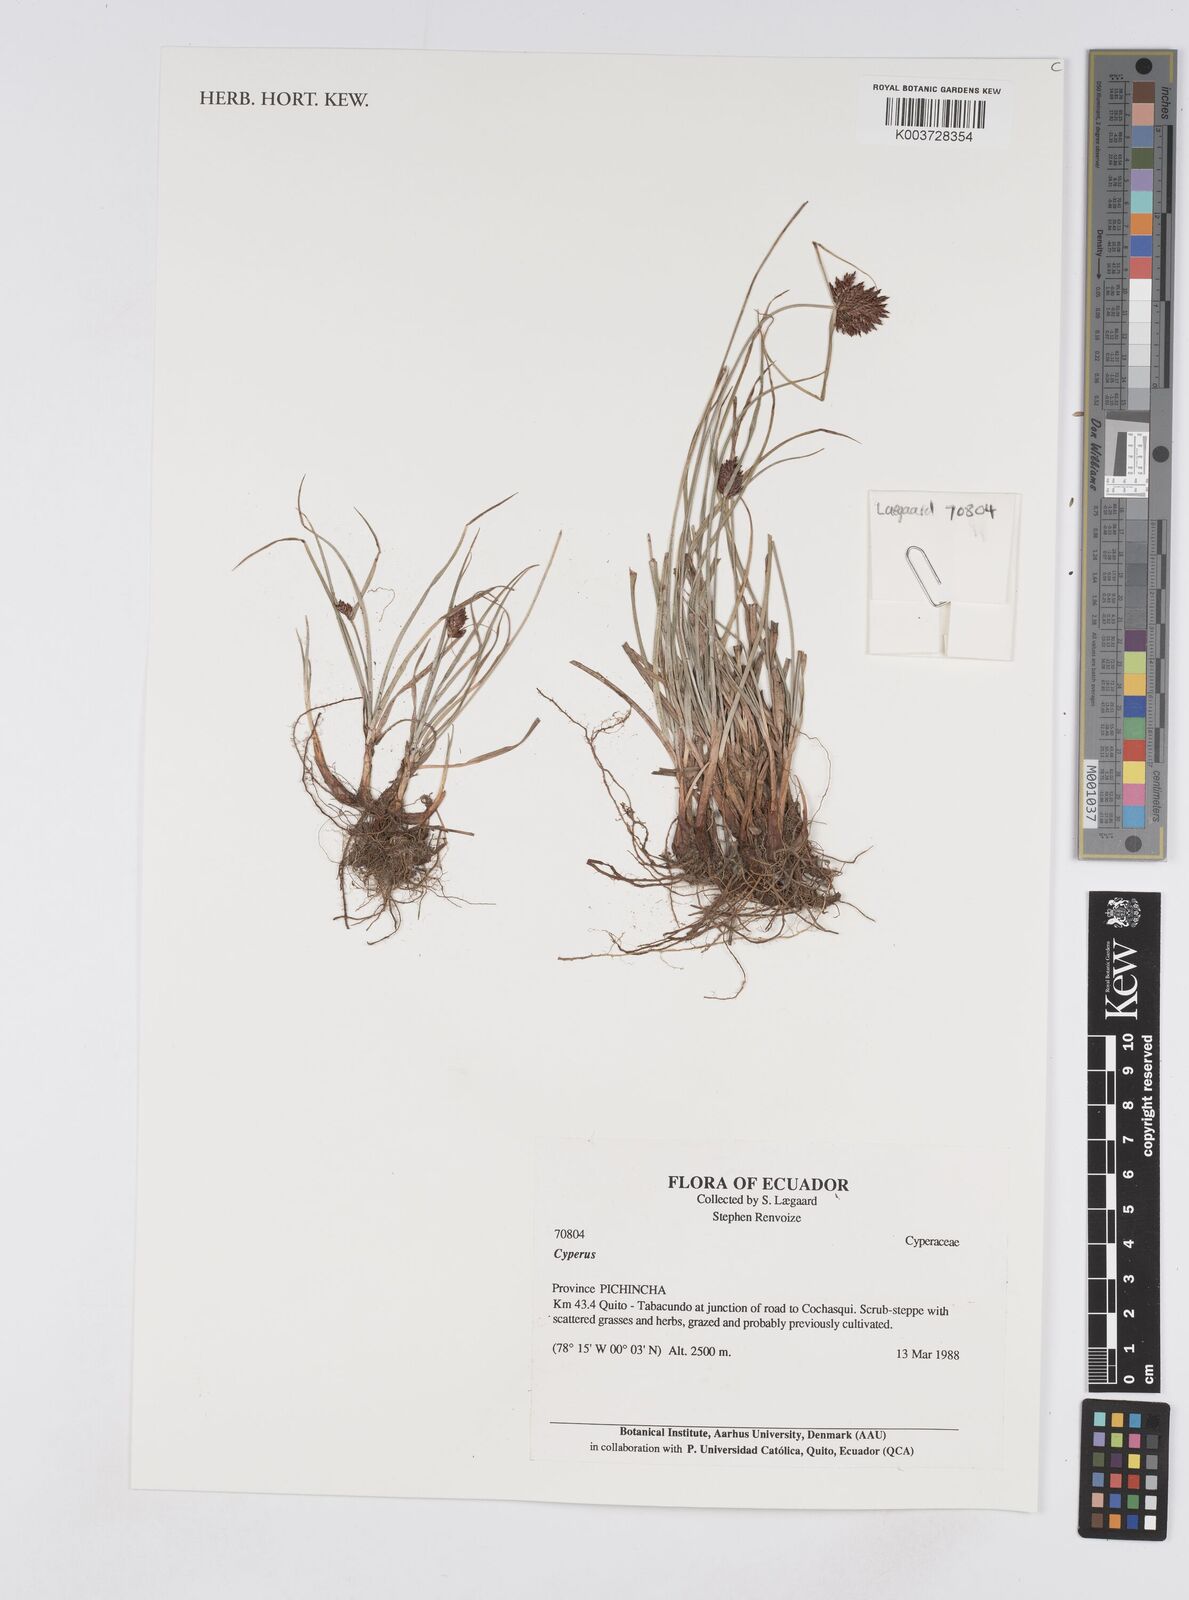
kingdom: Plantae
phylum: Tracheophyta
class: Liliopsida
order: Poales
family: Cyperaceae
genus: Cyperus
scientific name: Cyperus
